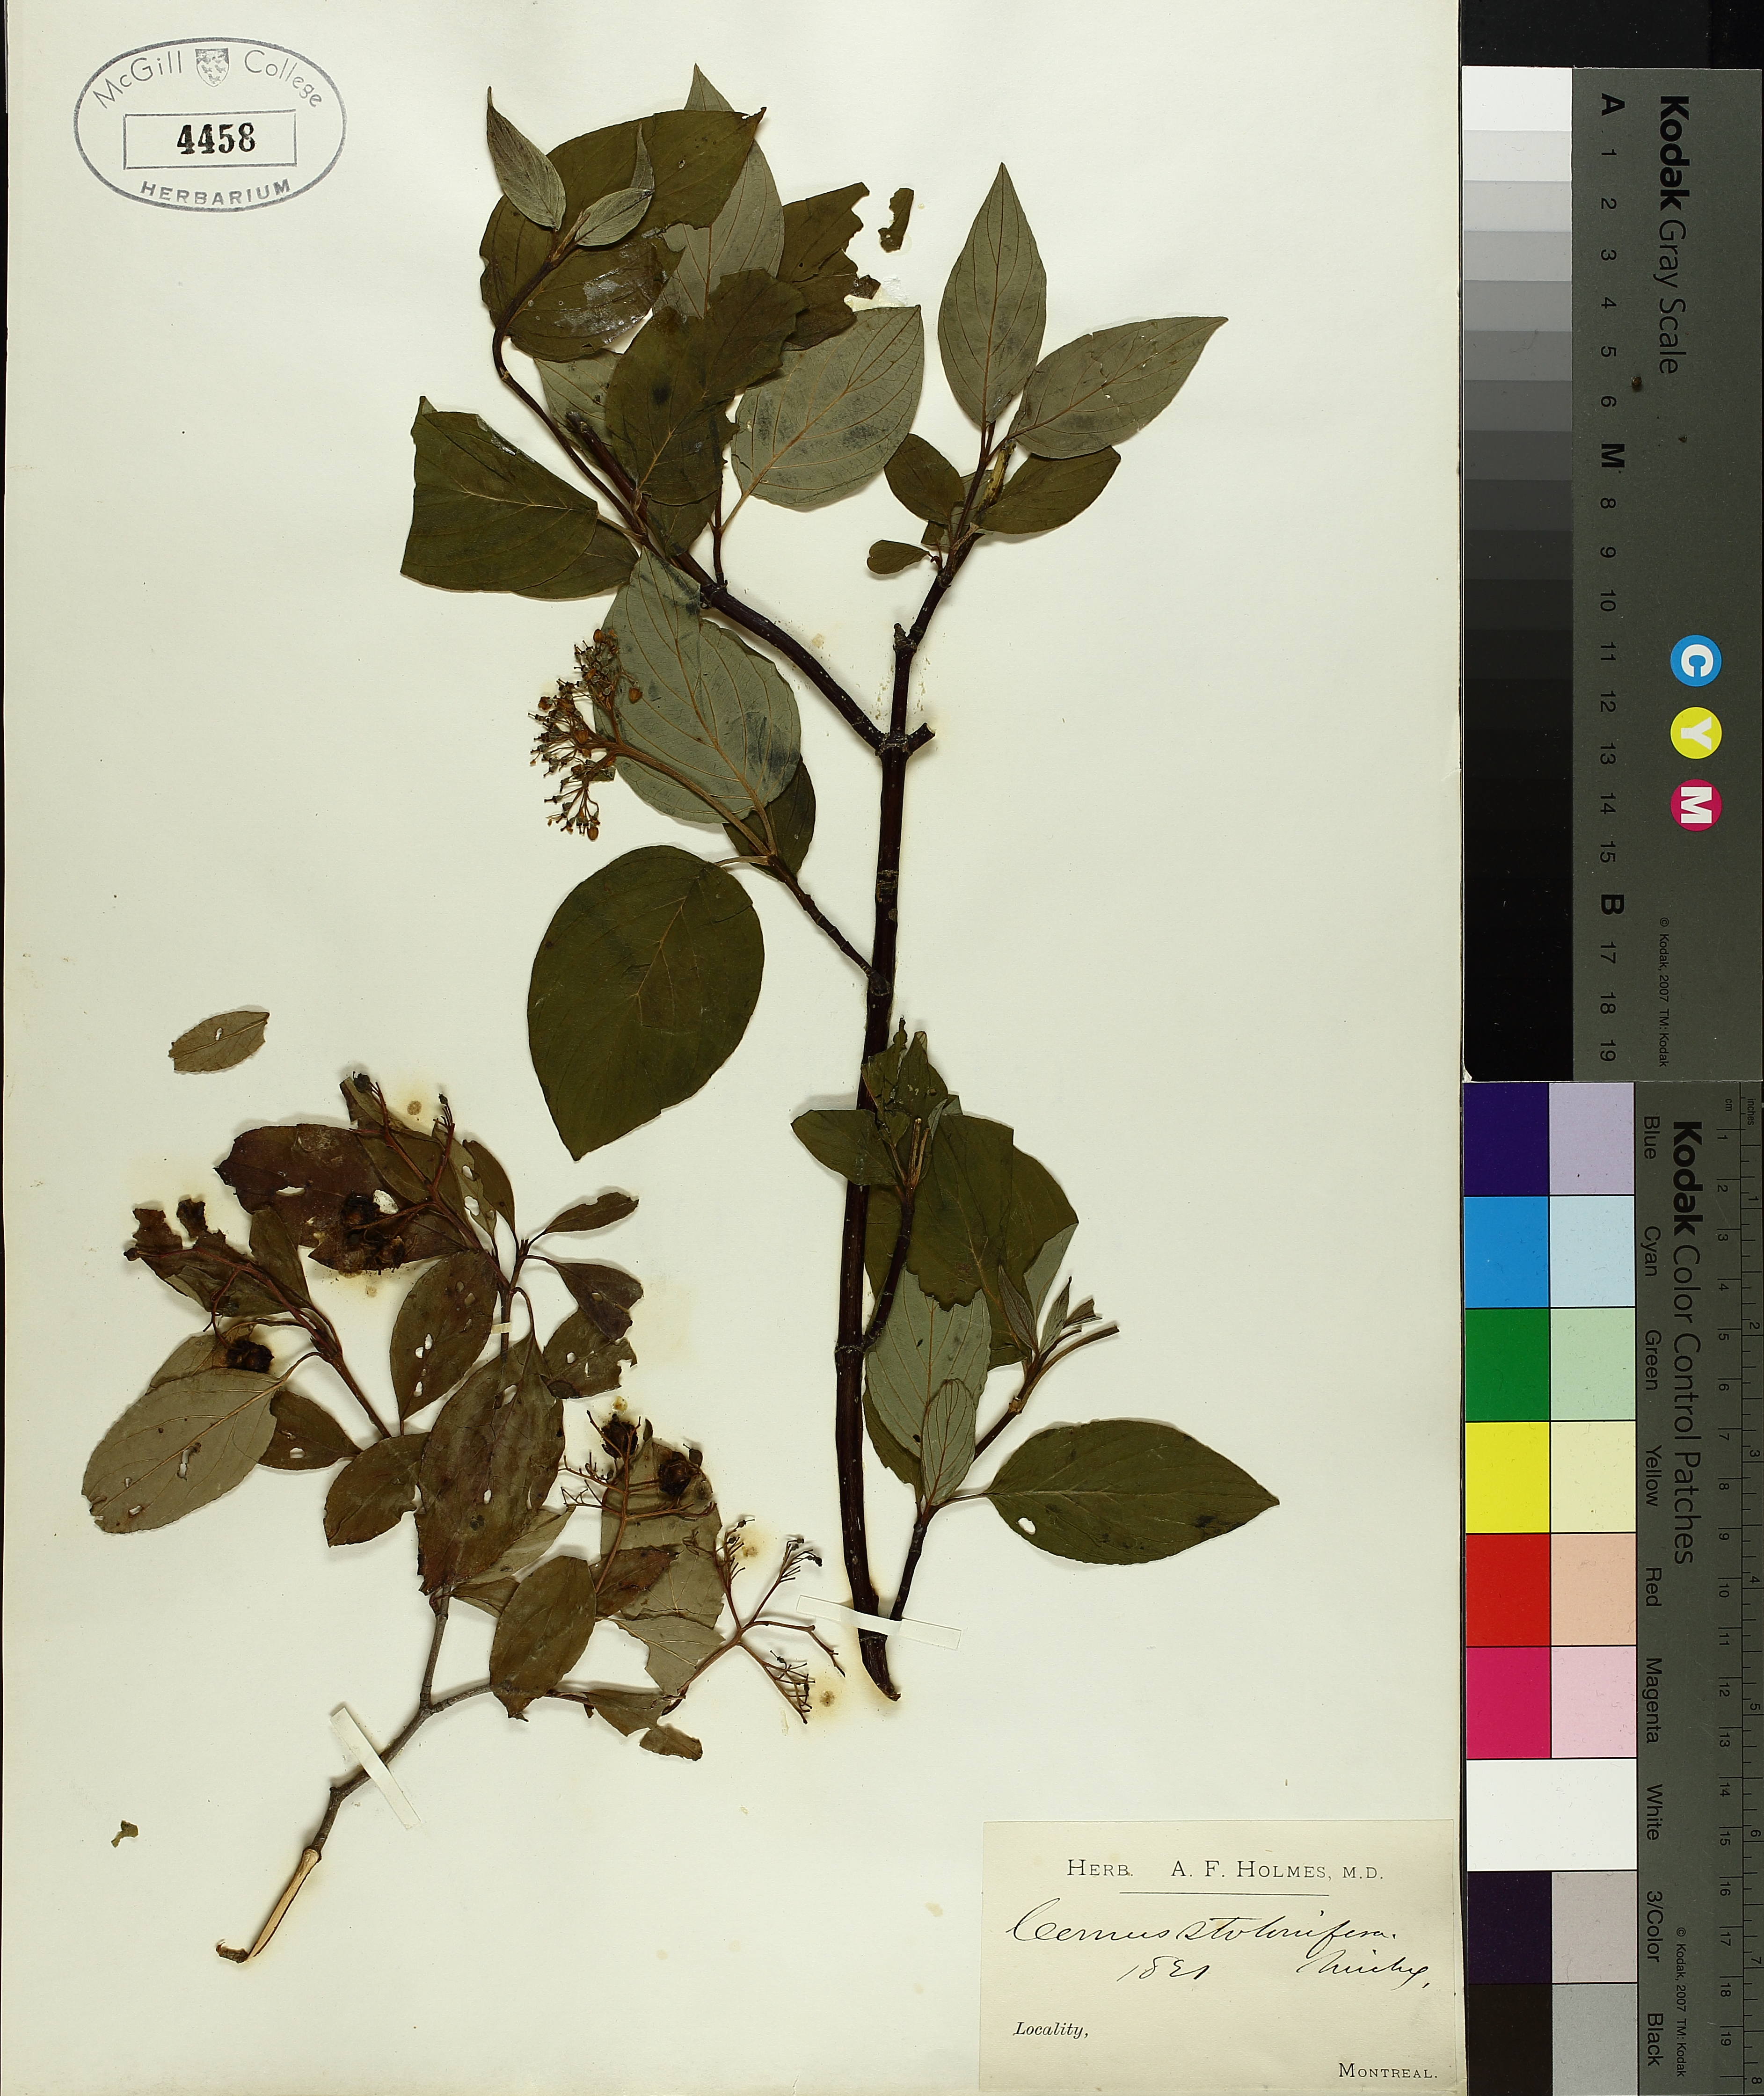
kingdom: Plantae
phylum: Tracheophyta
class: Magnoliopsida
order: Cornales
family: Cornaceae
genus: Cornus
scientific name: Cornus sericea
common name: Red-osier dogwood
